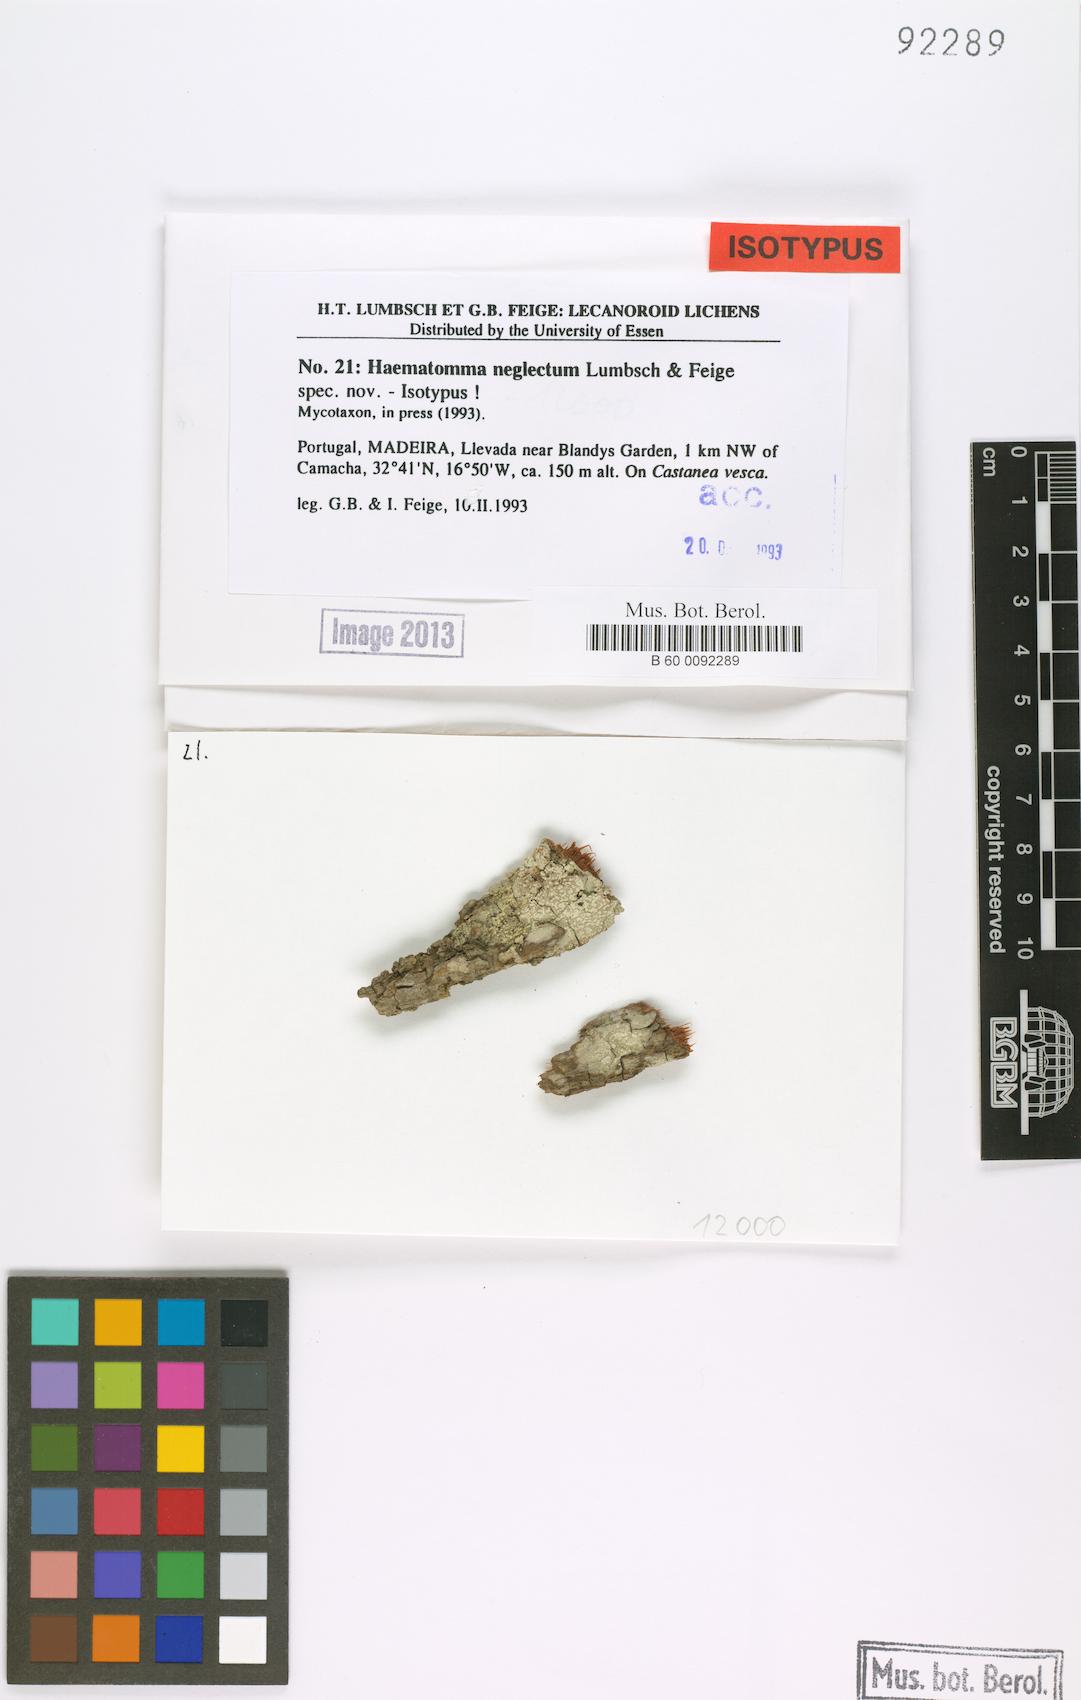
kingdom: Fungi
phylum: Ascomycota
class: Lecanoromycetes
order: Lecanorales
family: Haematommataceae
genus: Haematomma
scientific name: Haematomma sorediatum
